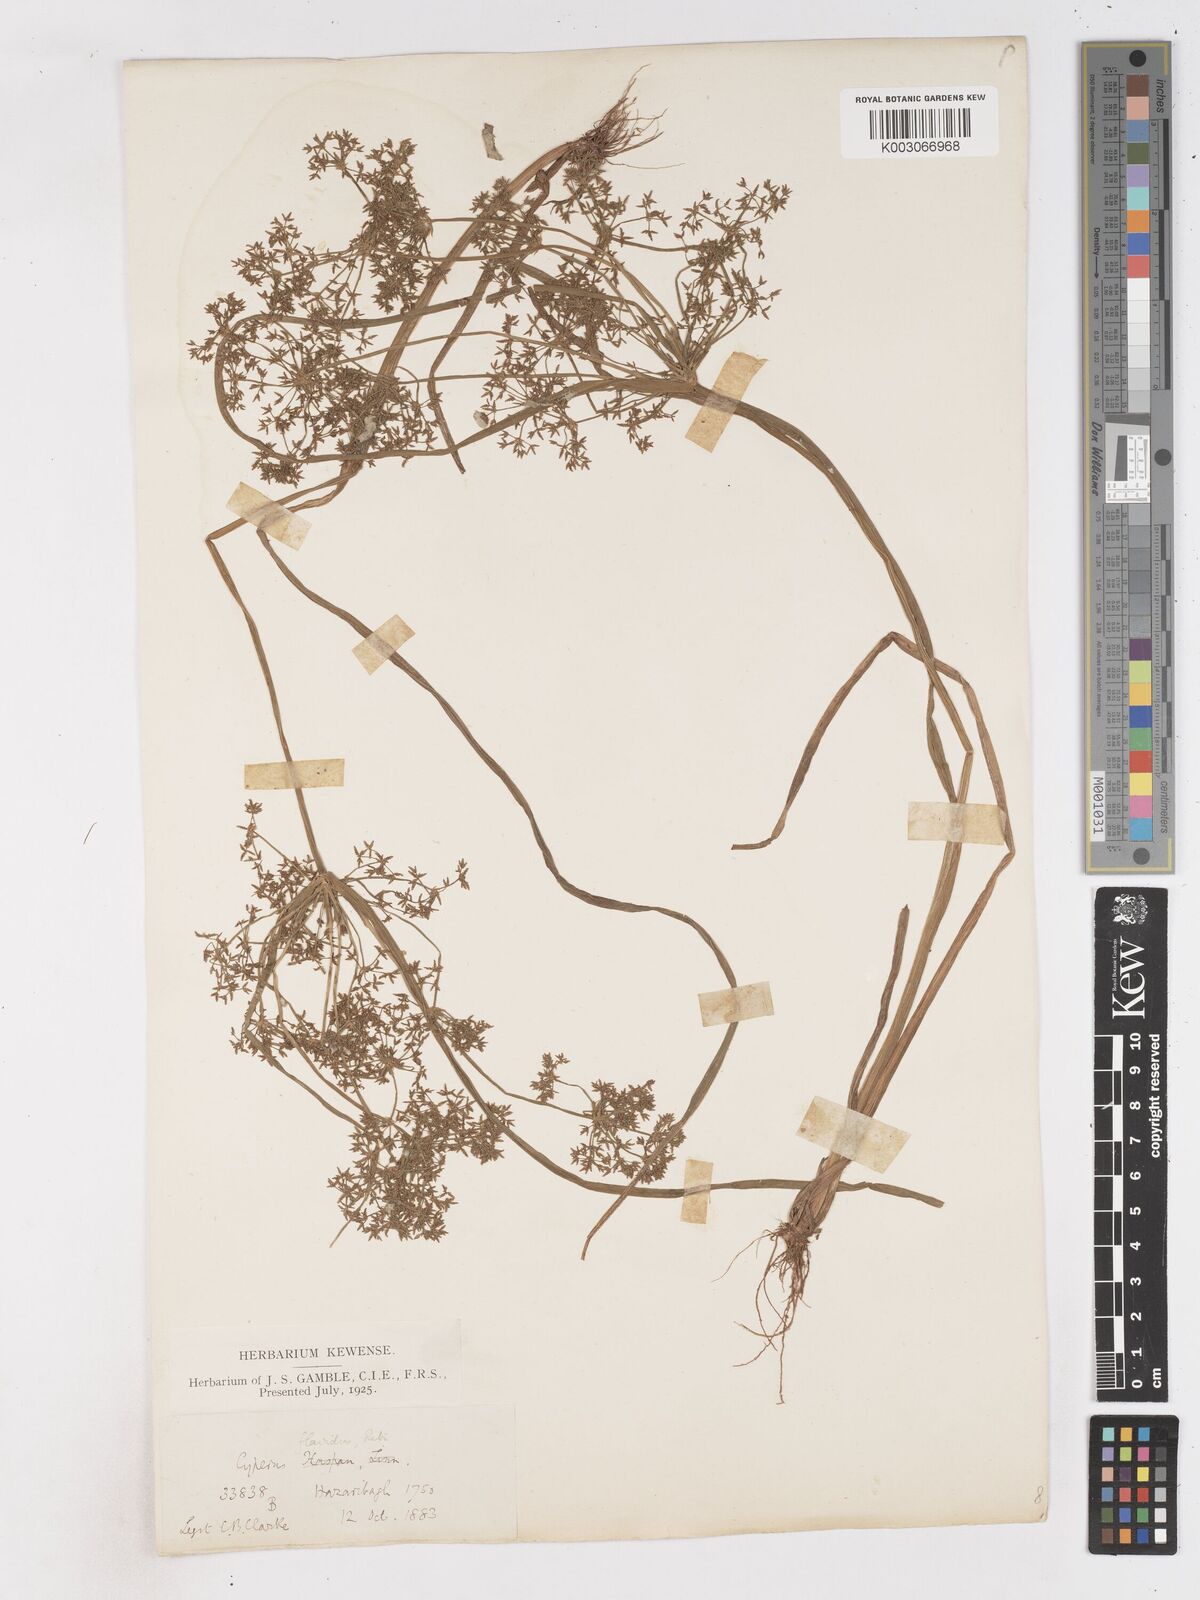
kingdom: Plantae
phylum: Tracheophyta
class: Liliopsida
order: Poales
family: Cyperaceae
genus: Cyperus
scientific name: Cyperus tenuispica
